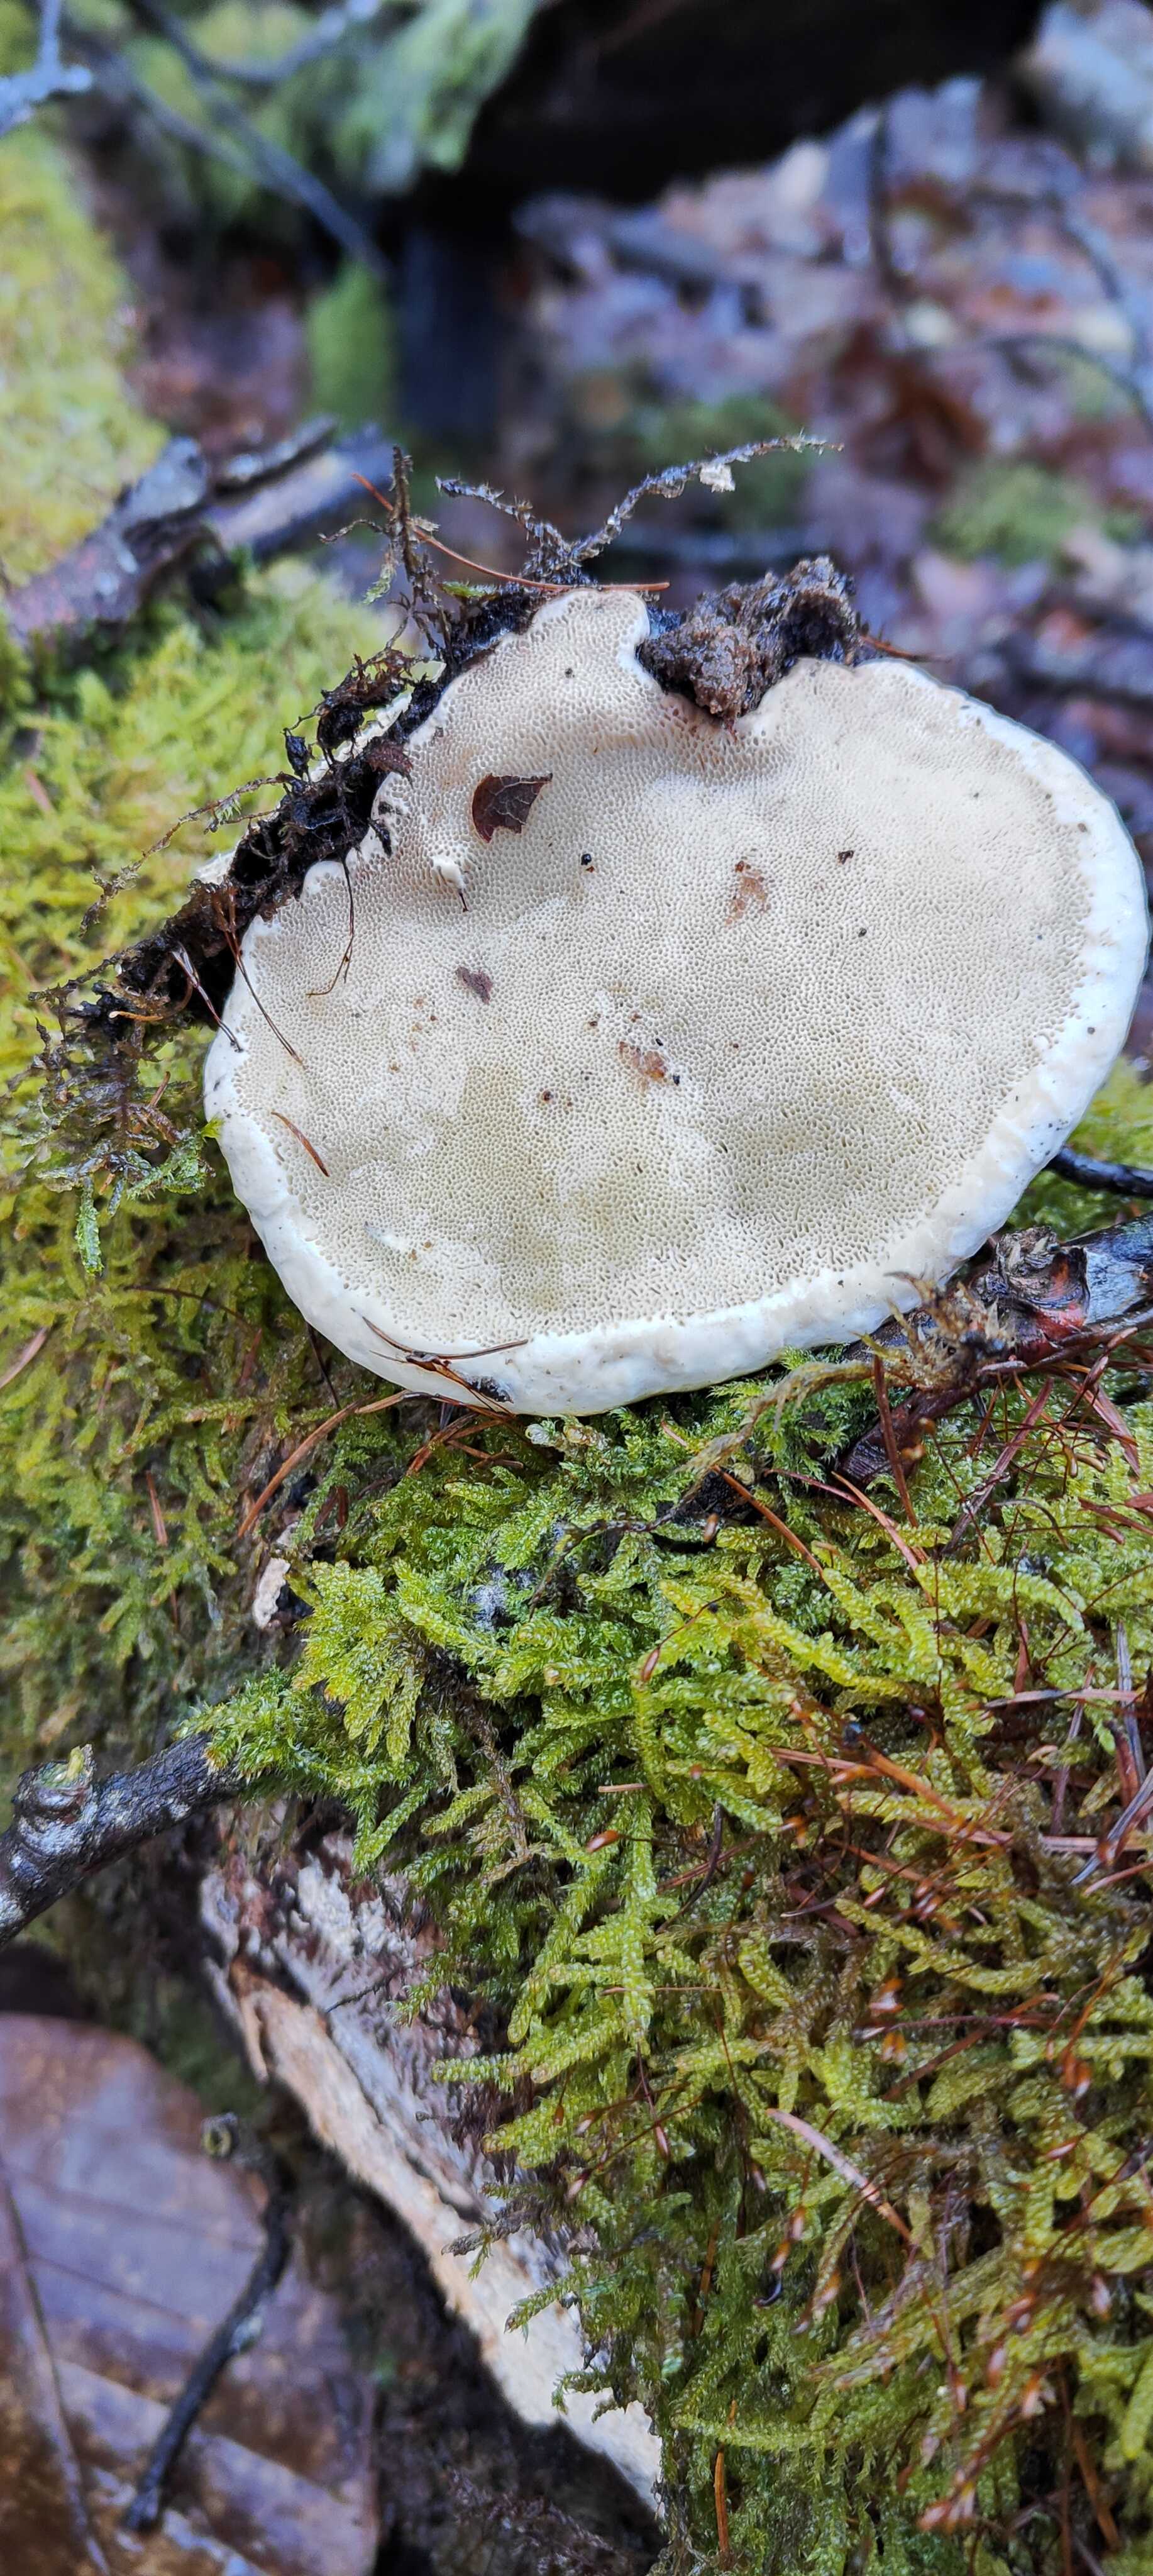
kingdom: Fungi
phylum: Basidiomycota
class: Agaricomycetes
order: Polyporales
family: Fomitopsidaceae
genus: Fomitopsis
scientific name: Fomitopsis pinicola
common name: randbæltet hovporesvamp
